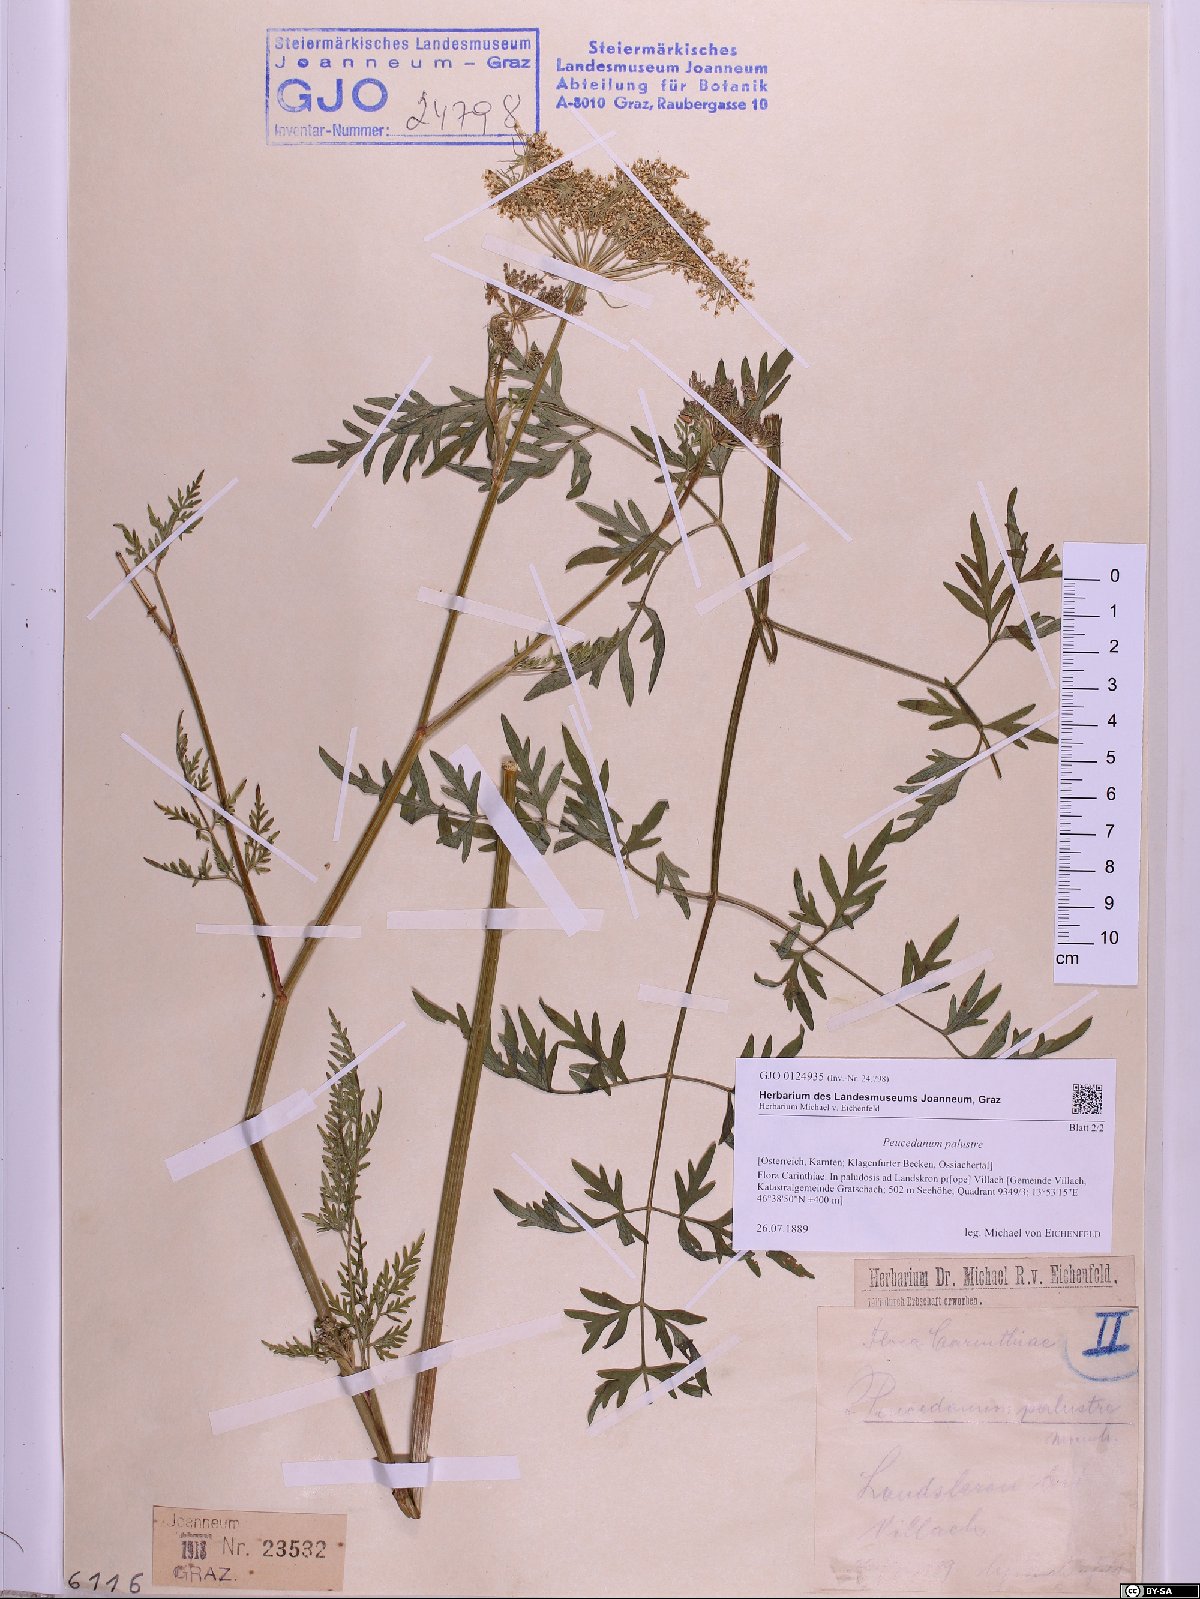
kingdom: Plantae
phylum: Tracheophyta
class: Magnoliopsida
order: Apiales
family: Apiaceae
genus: Thysselinum
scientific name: Thysselinum palustre
